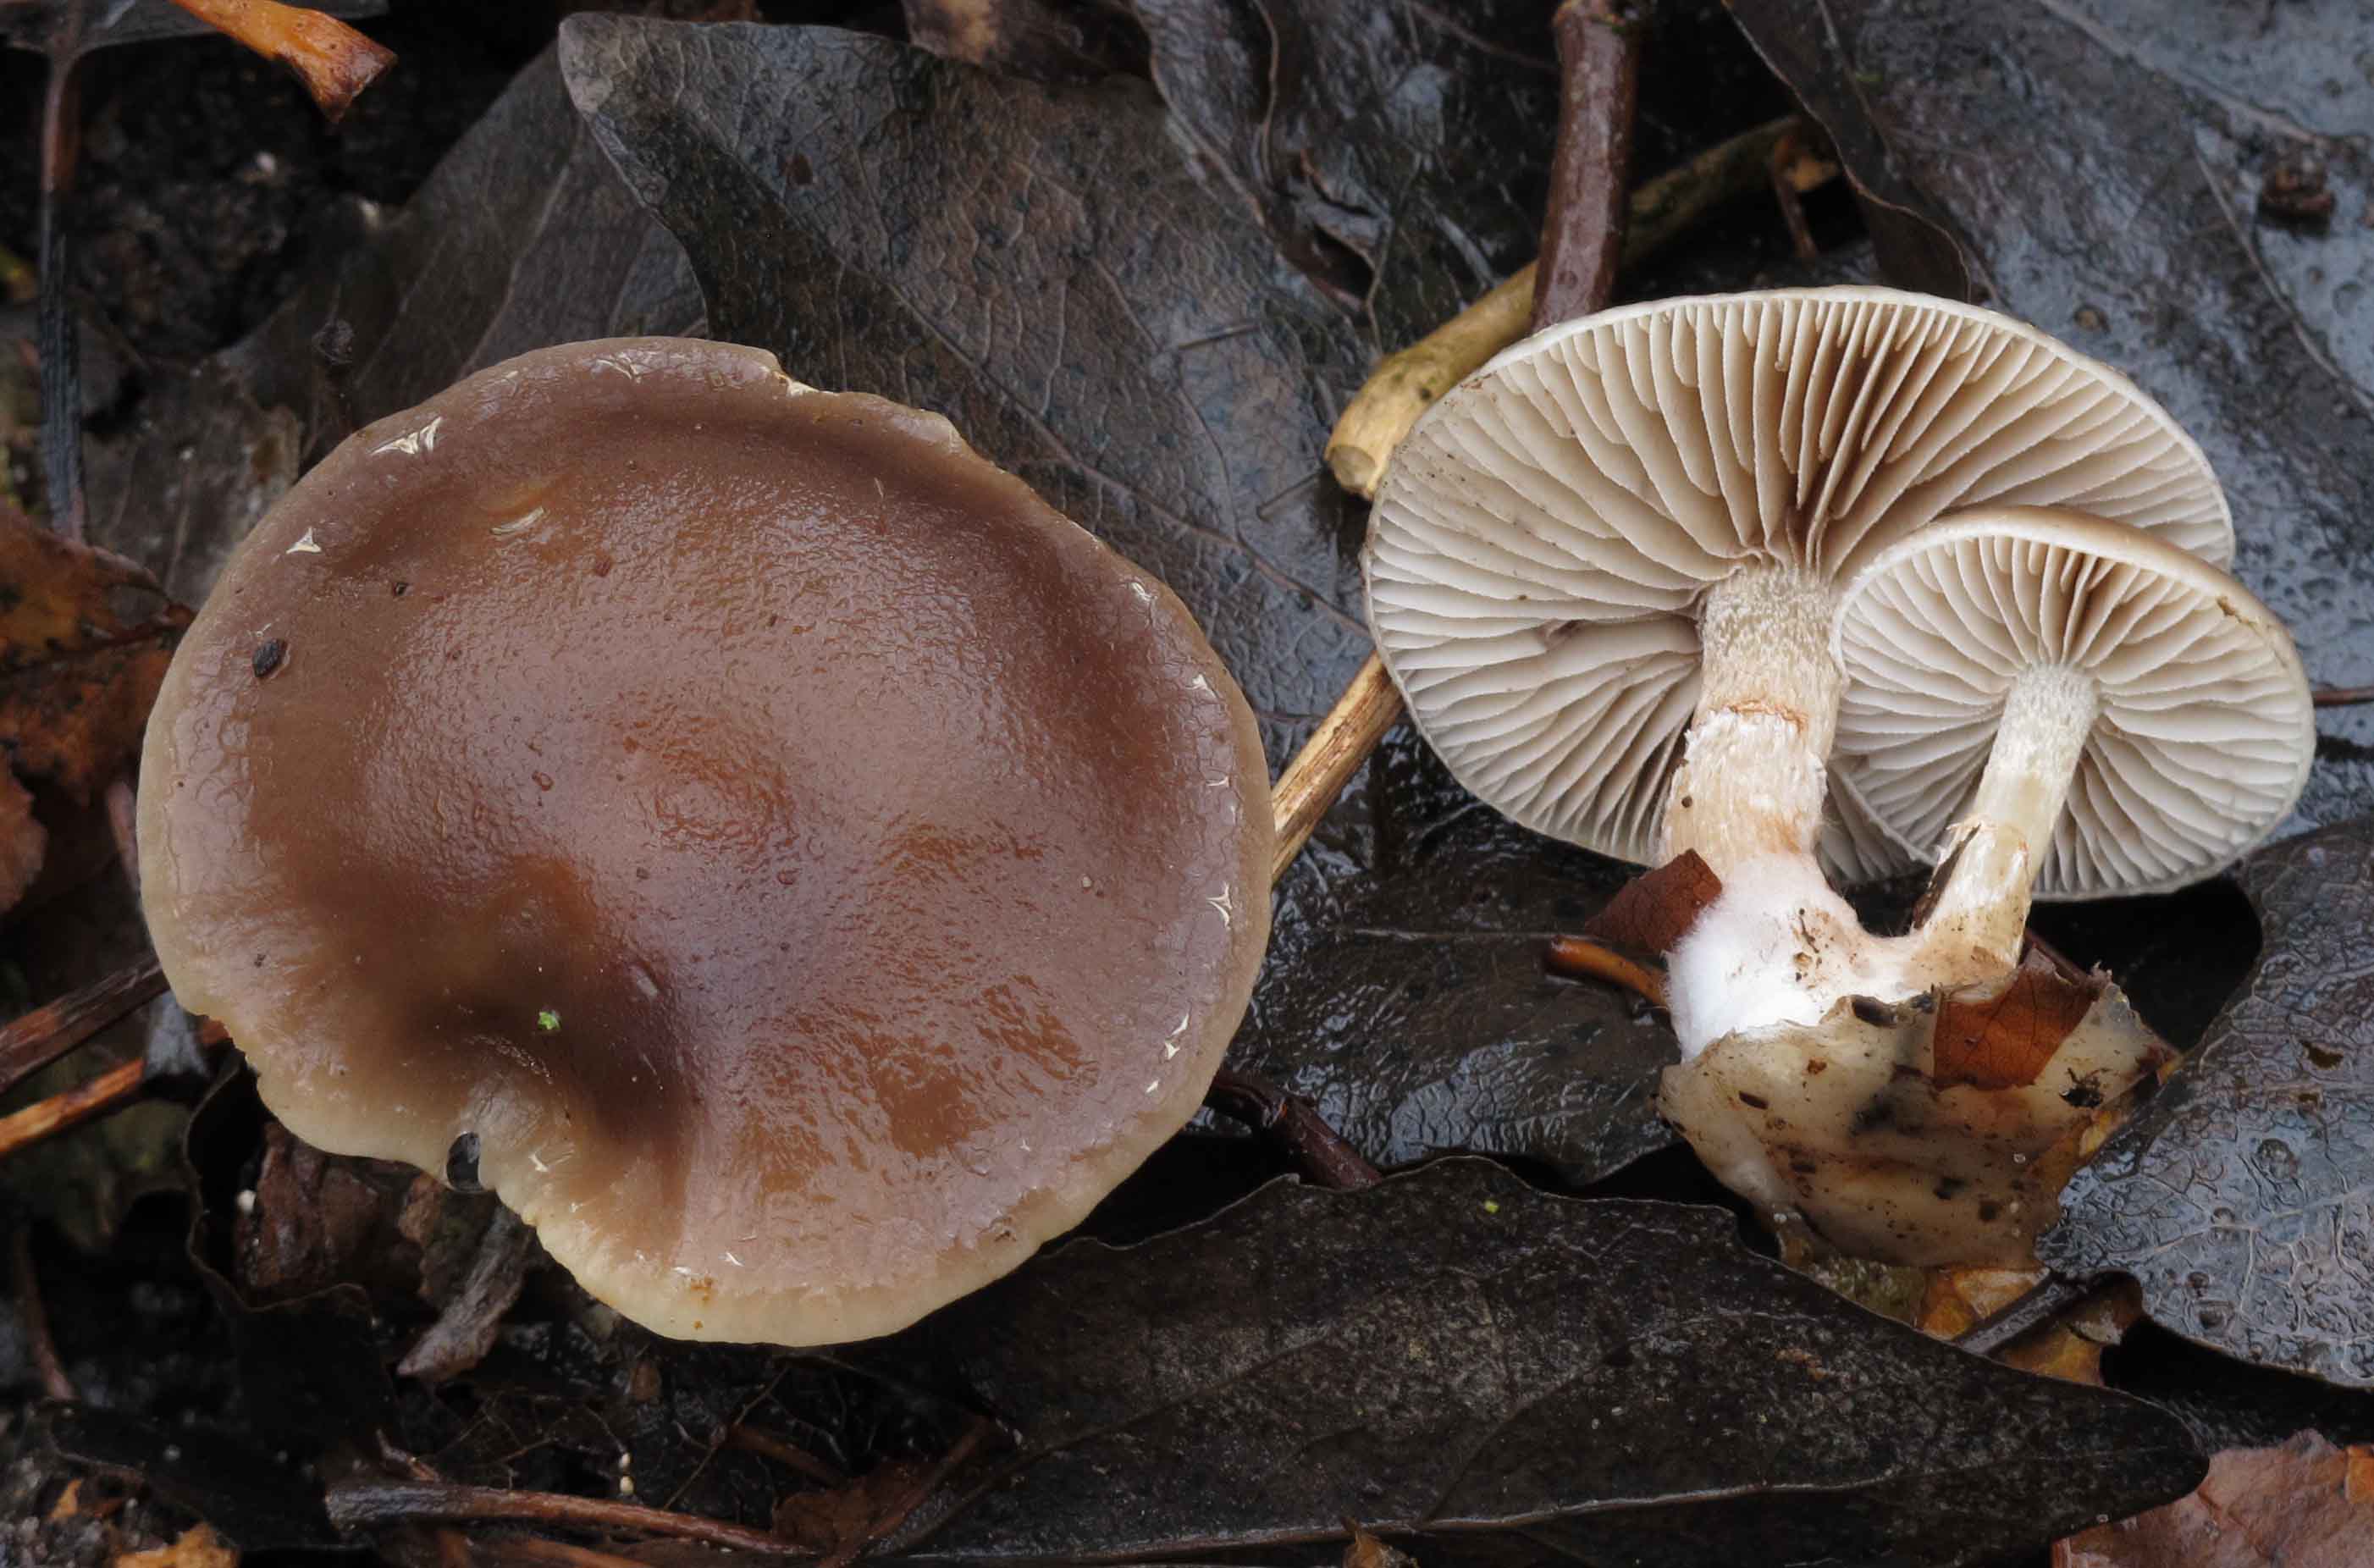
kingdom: Fungi
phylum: Basidiomycota
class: Agaricomycetes
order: Agaricales
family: Strophariaceae
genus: Meottomyces
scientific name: Meottomyces dissimulans
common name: smudsigbrun vinterskælhat
